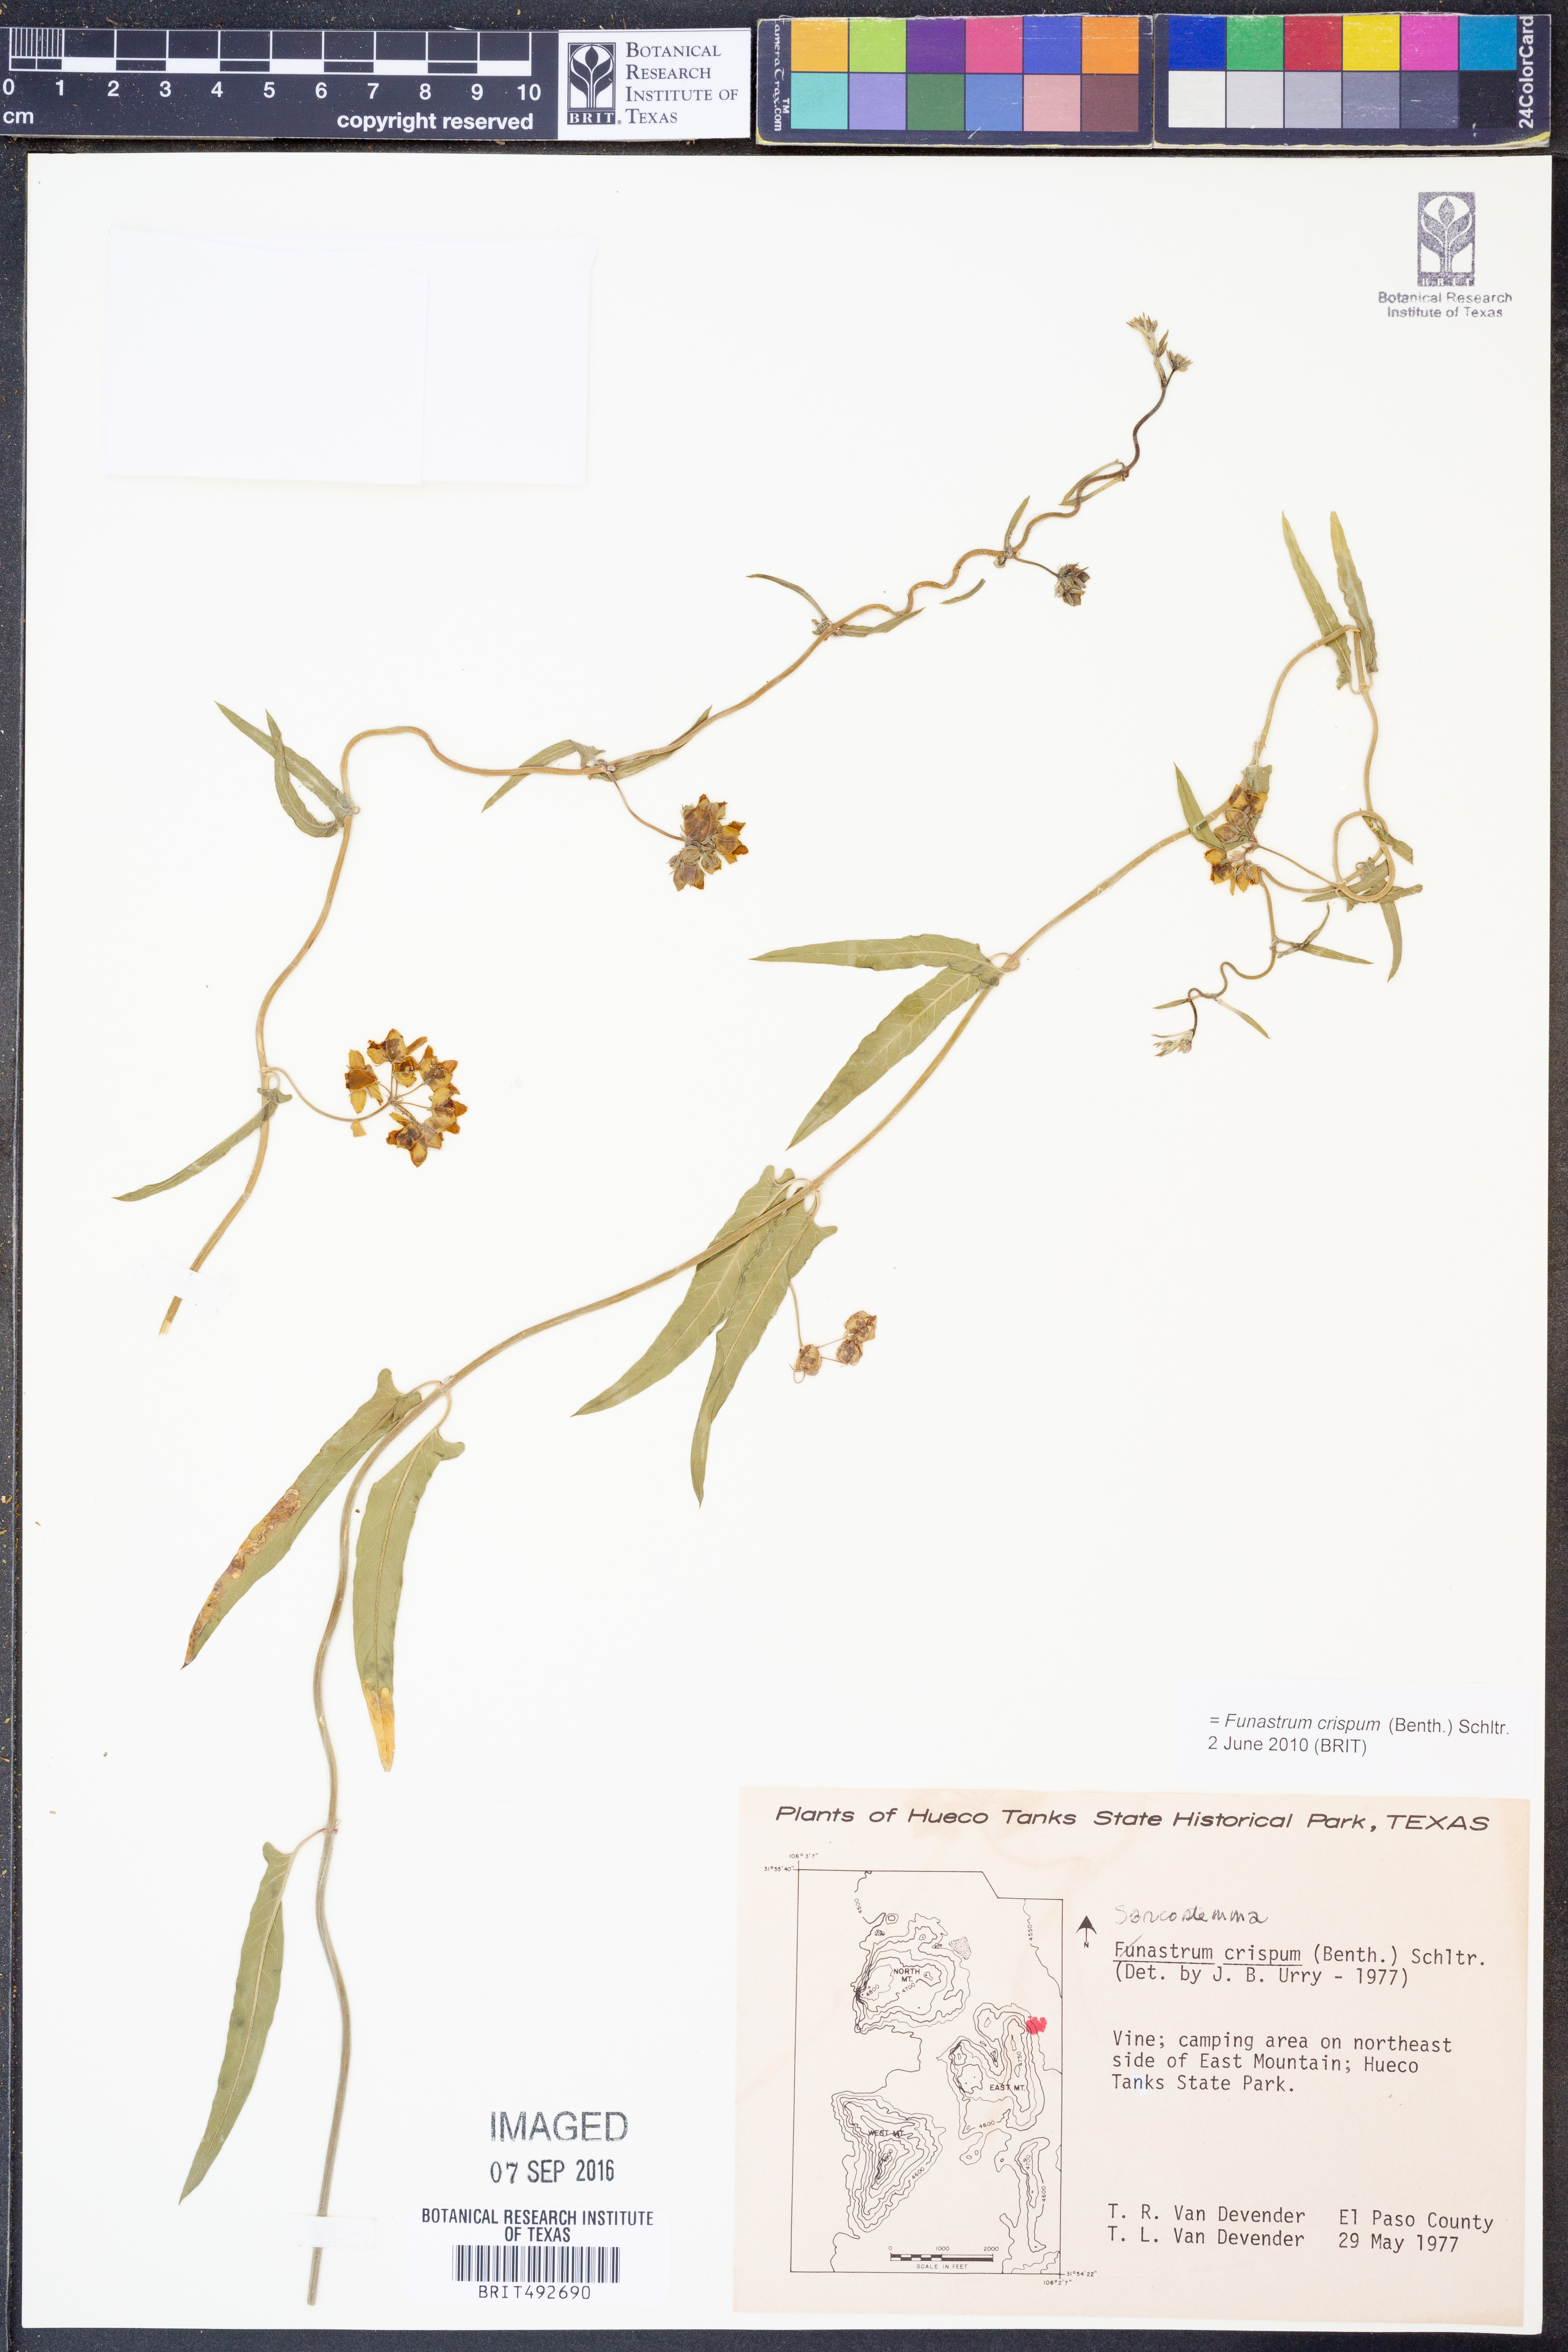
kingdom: Plantae
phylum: Tracheophyta
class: Magnoliopsida
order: Gentianales
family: Apocynaceae
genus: Funastrum
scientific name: Funastrum crispum
